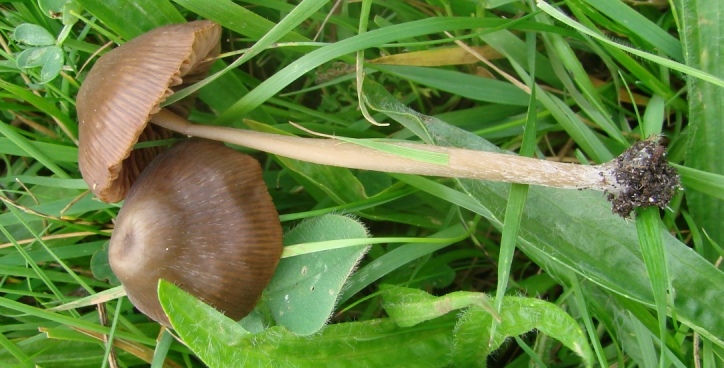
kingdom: Fungi
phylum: Basidiomycota
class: Agaricomycetes
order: Agaricales
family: Entolomataceae
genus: Entoloma
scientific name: Entoloma infula
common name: hvidbladet rødblad
